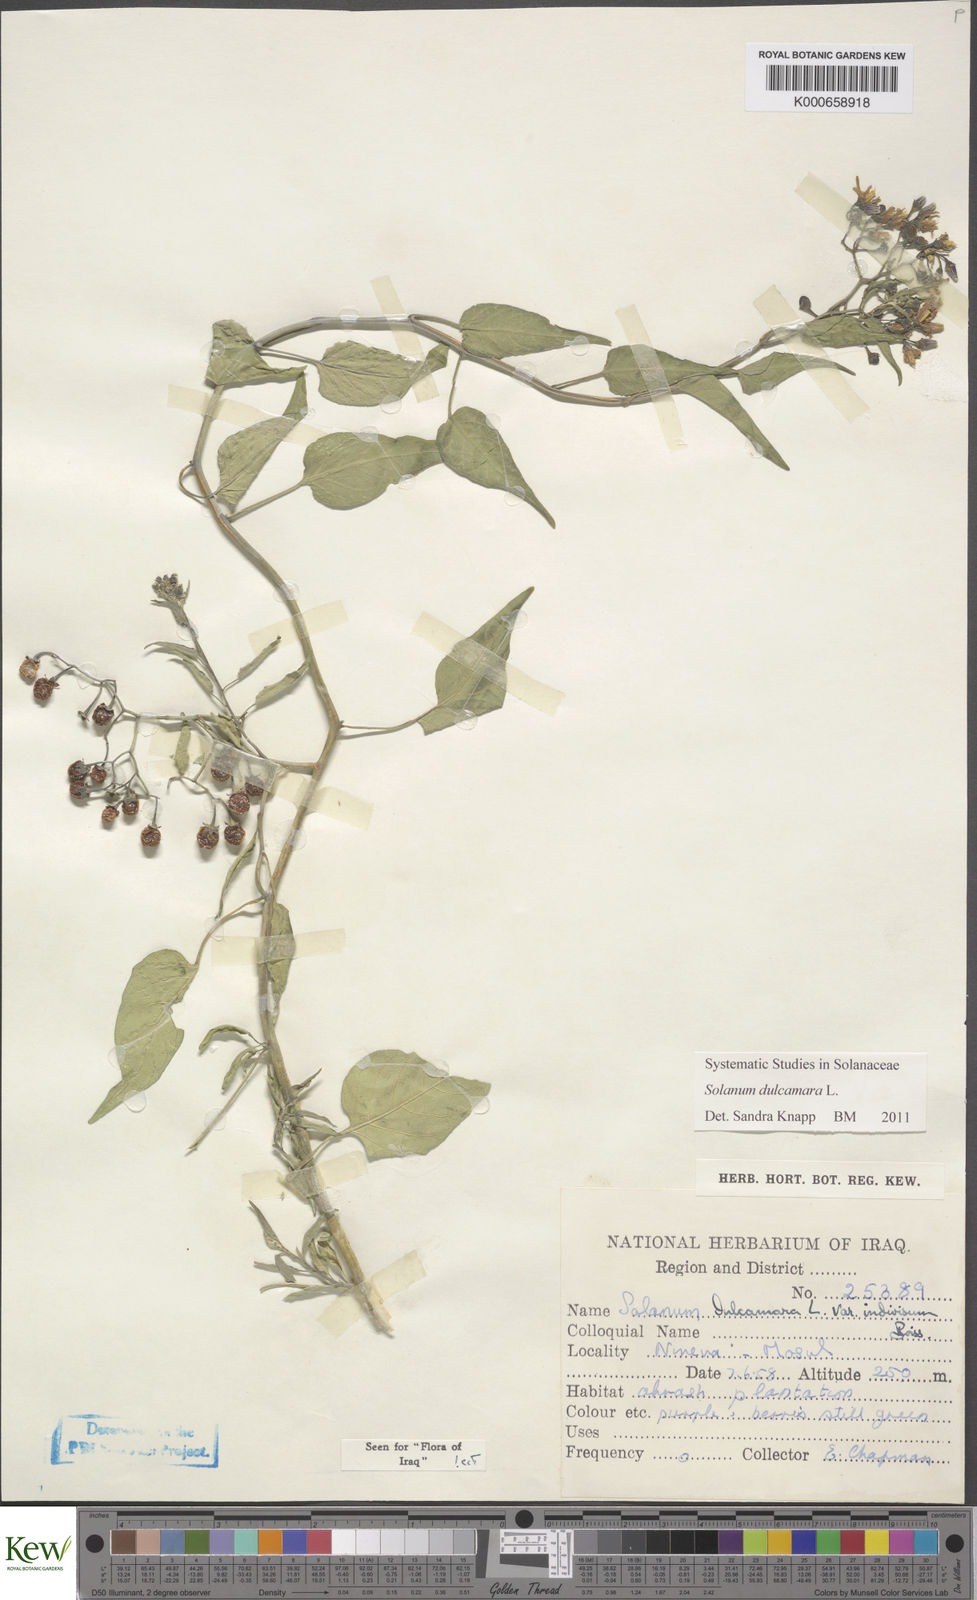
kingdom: Plantae
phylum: Tracheophyta
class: Magnoliopsida
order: Solanales
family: Solanaceae
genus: Solanum
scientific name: Solanum dulcamara
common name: Climbing nightshade
